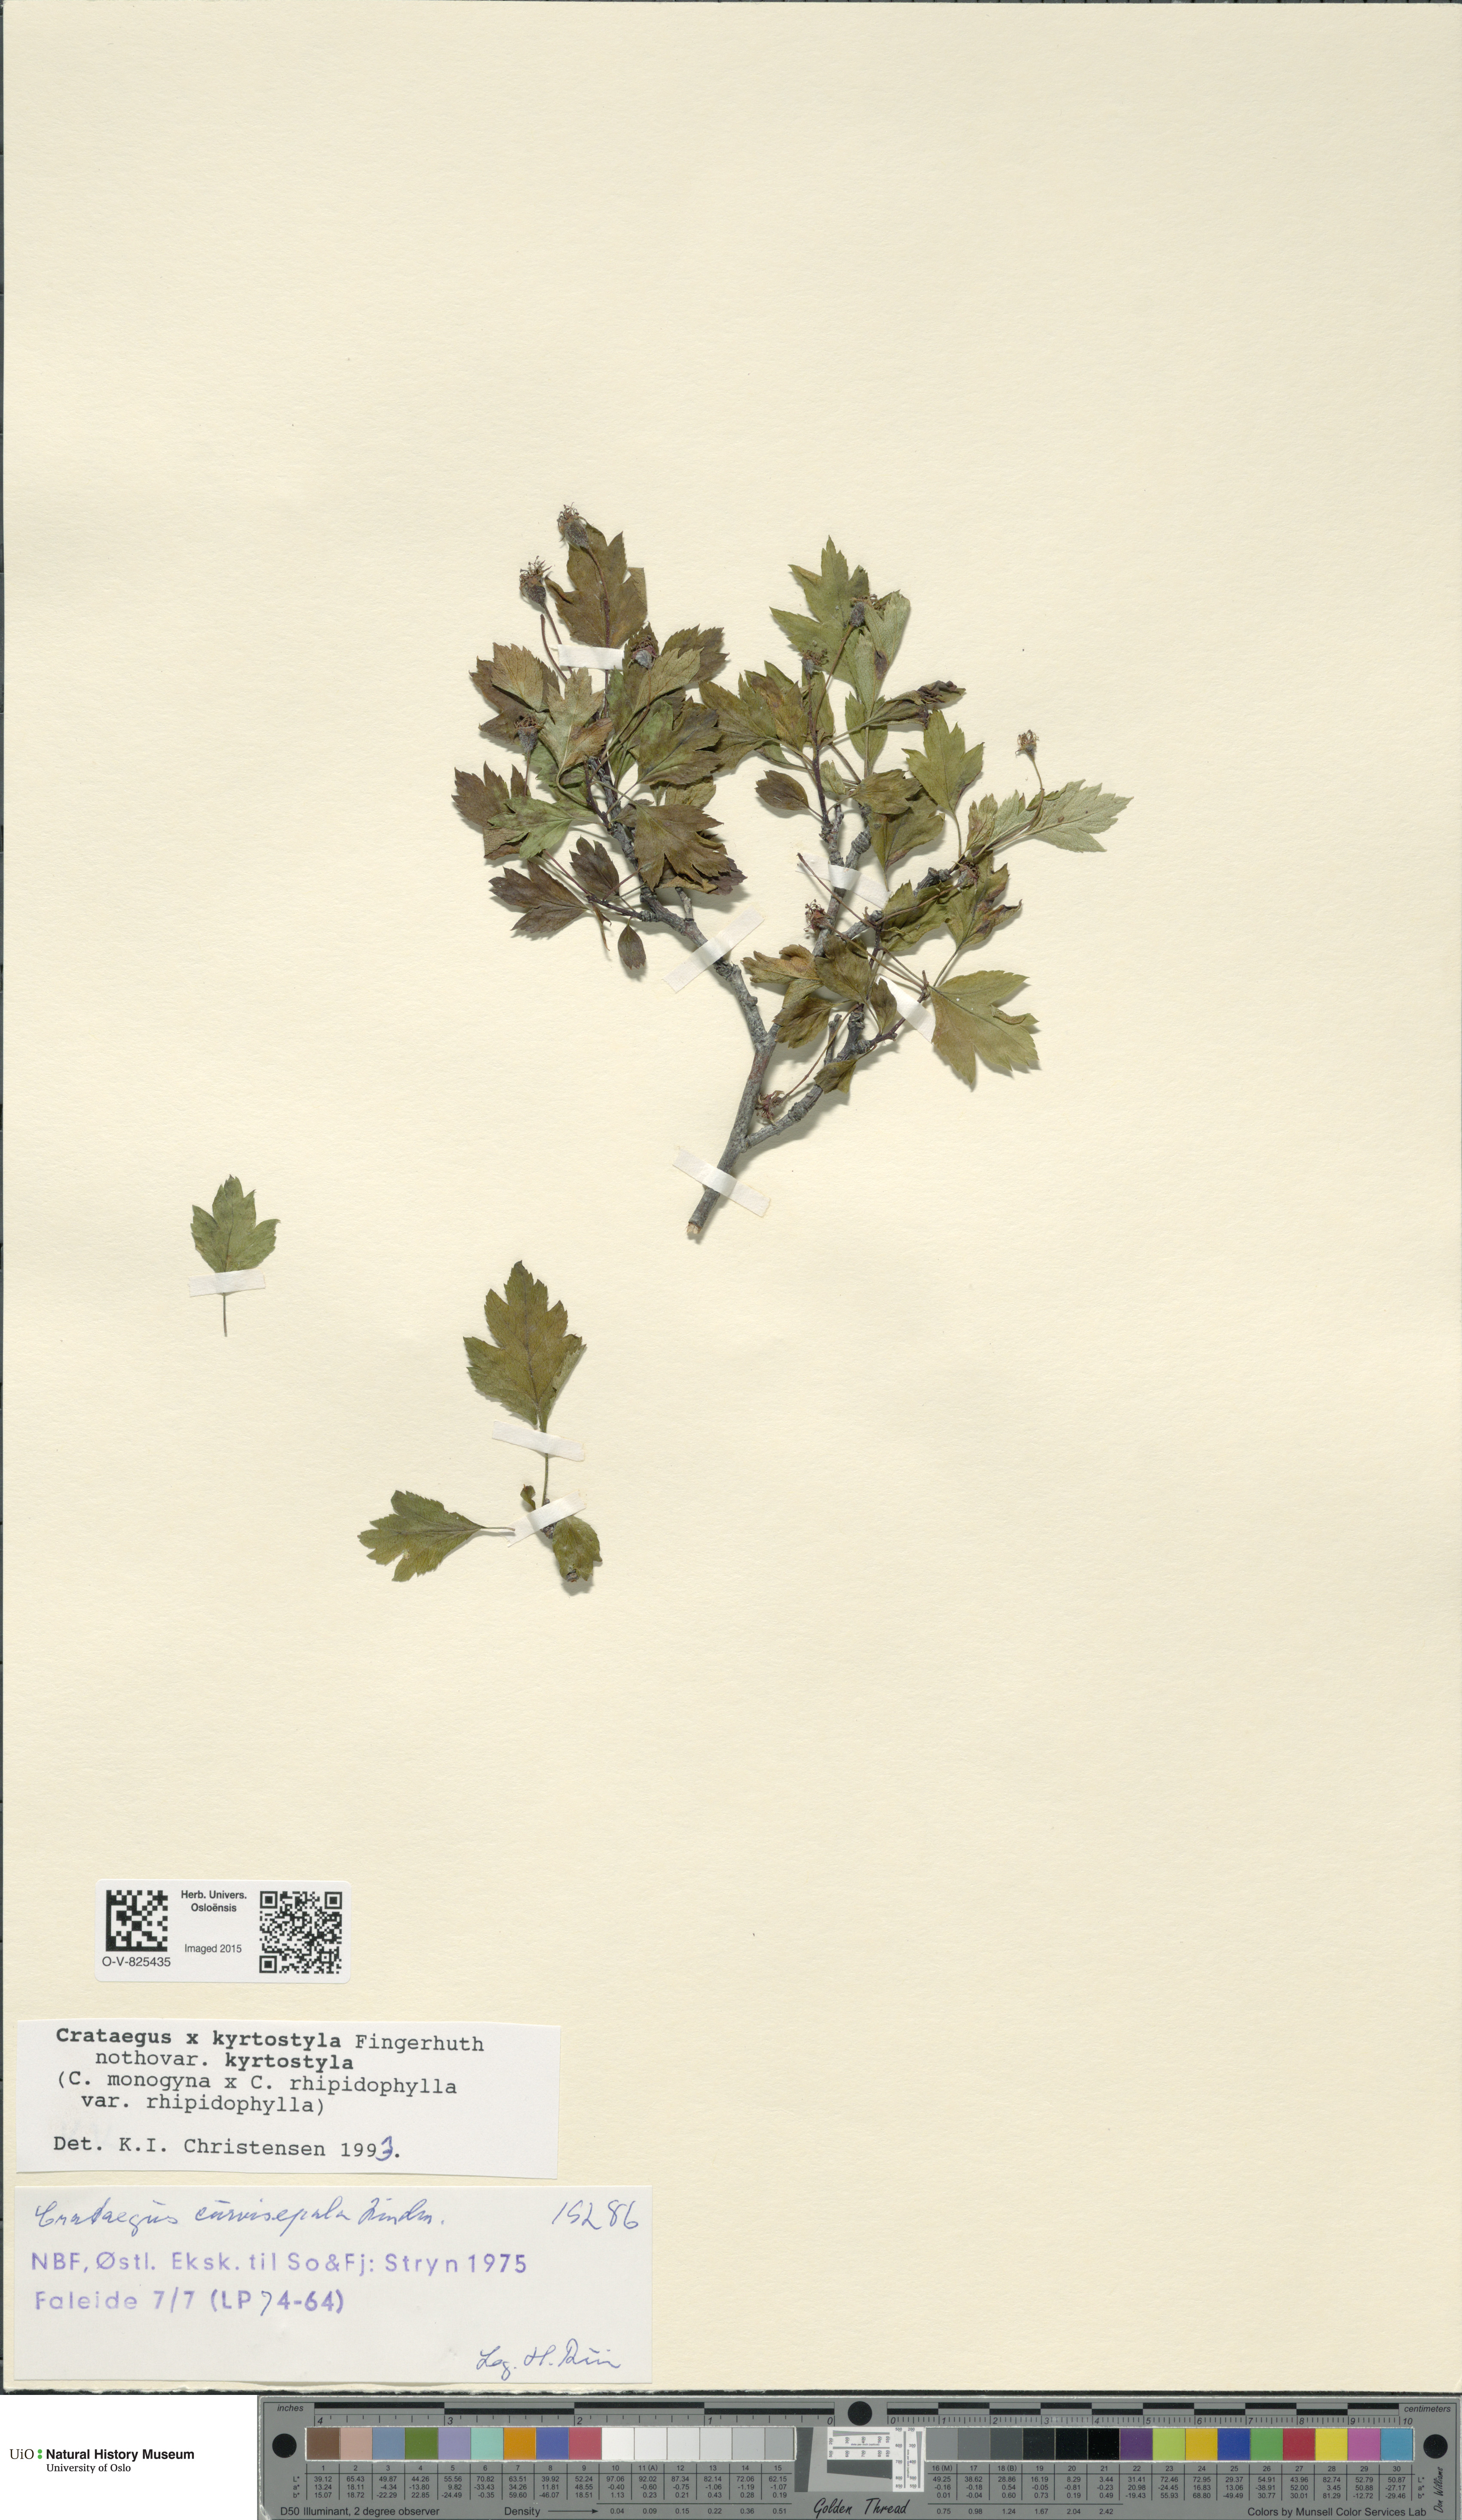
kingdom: Plantae
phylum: Tracheophyta
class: Magnoliopsida
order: Rosales
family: Rosaceae
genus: Crataegus
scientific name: Crataegus kyrtostyla
